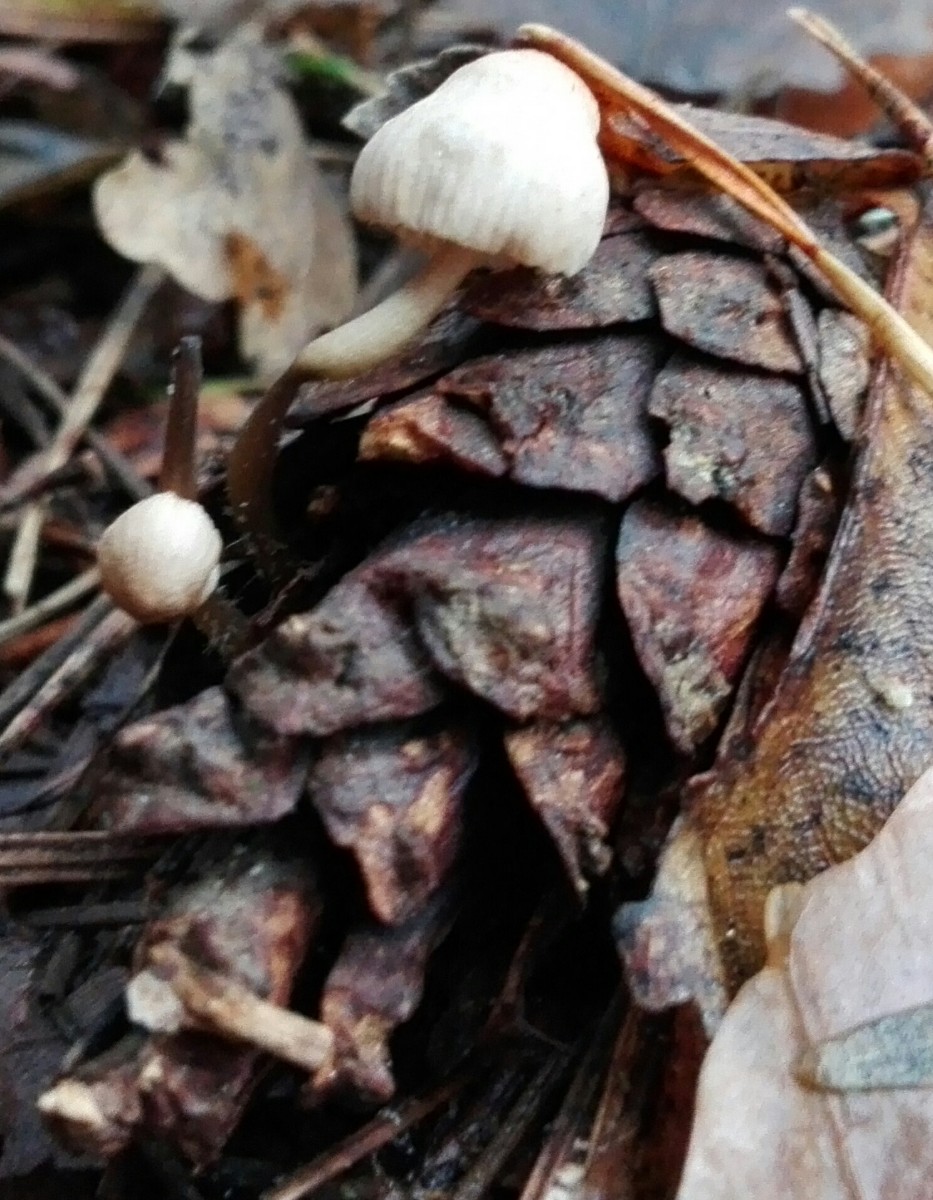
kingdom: Fungi
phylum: Basidiomycota
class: Agaricomycetes
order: Agaricales
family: Mycenaceae
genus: Mycena
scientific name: Mycena
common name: huesvamp
